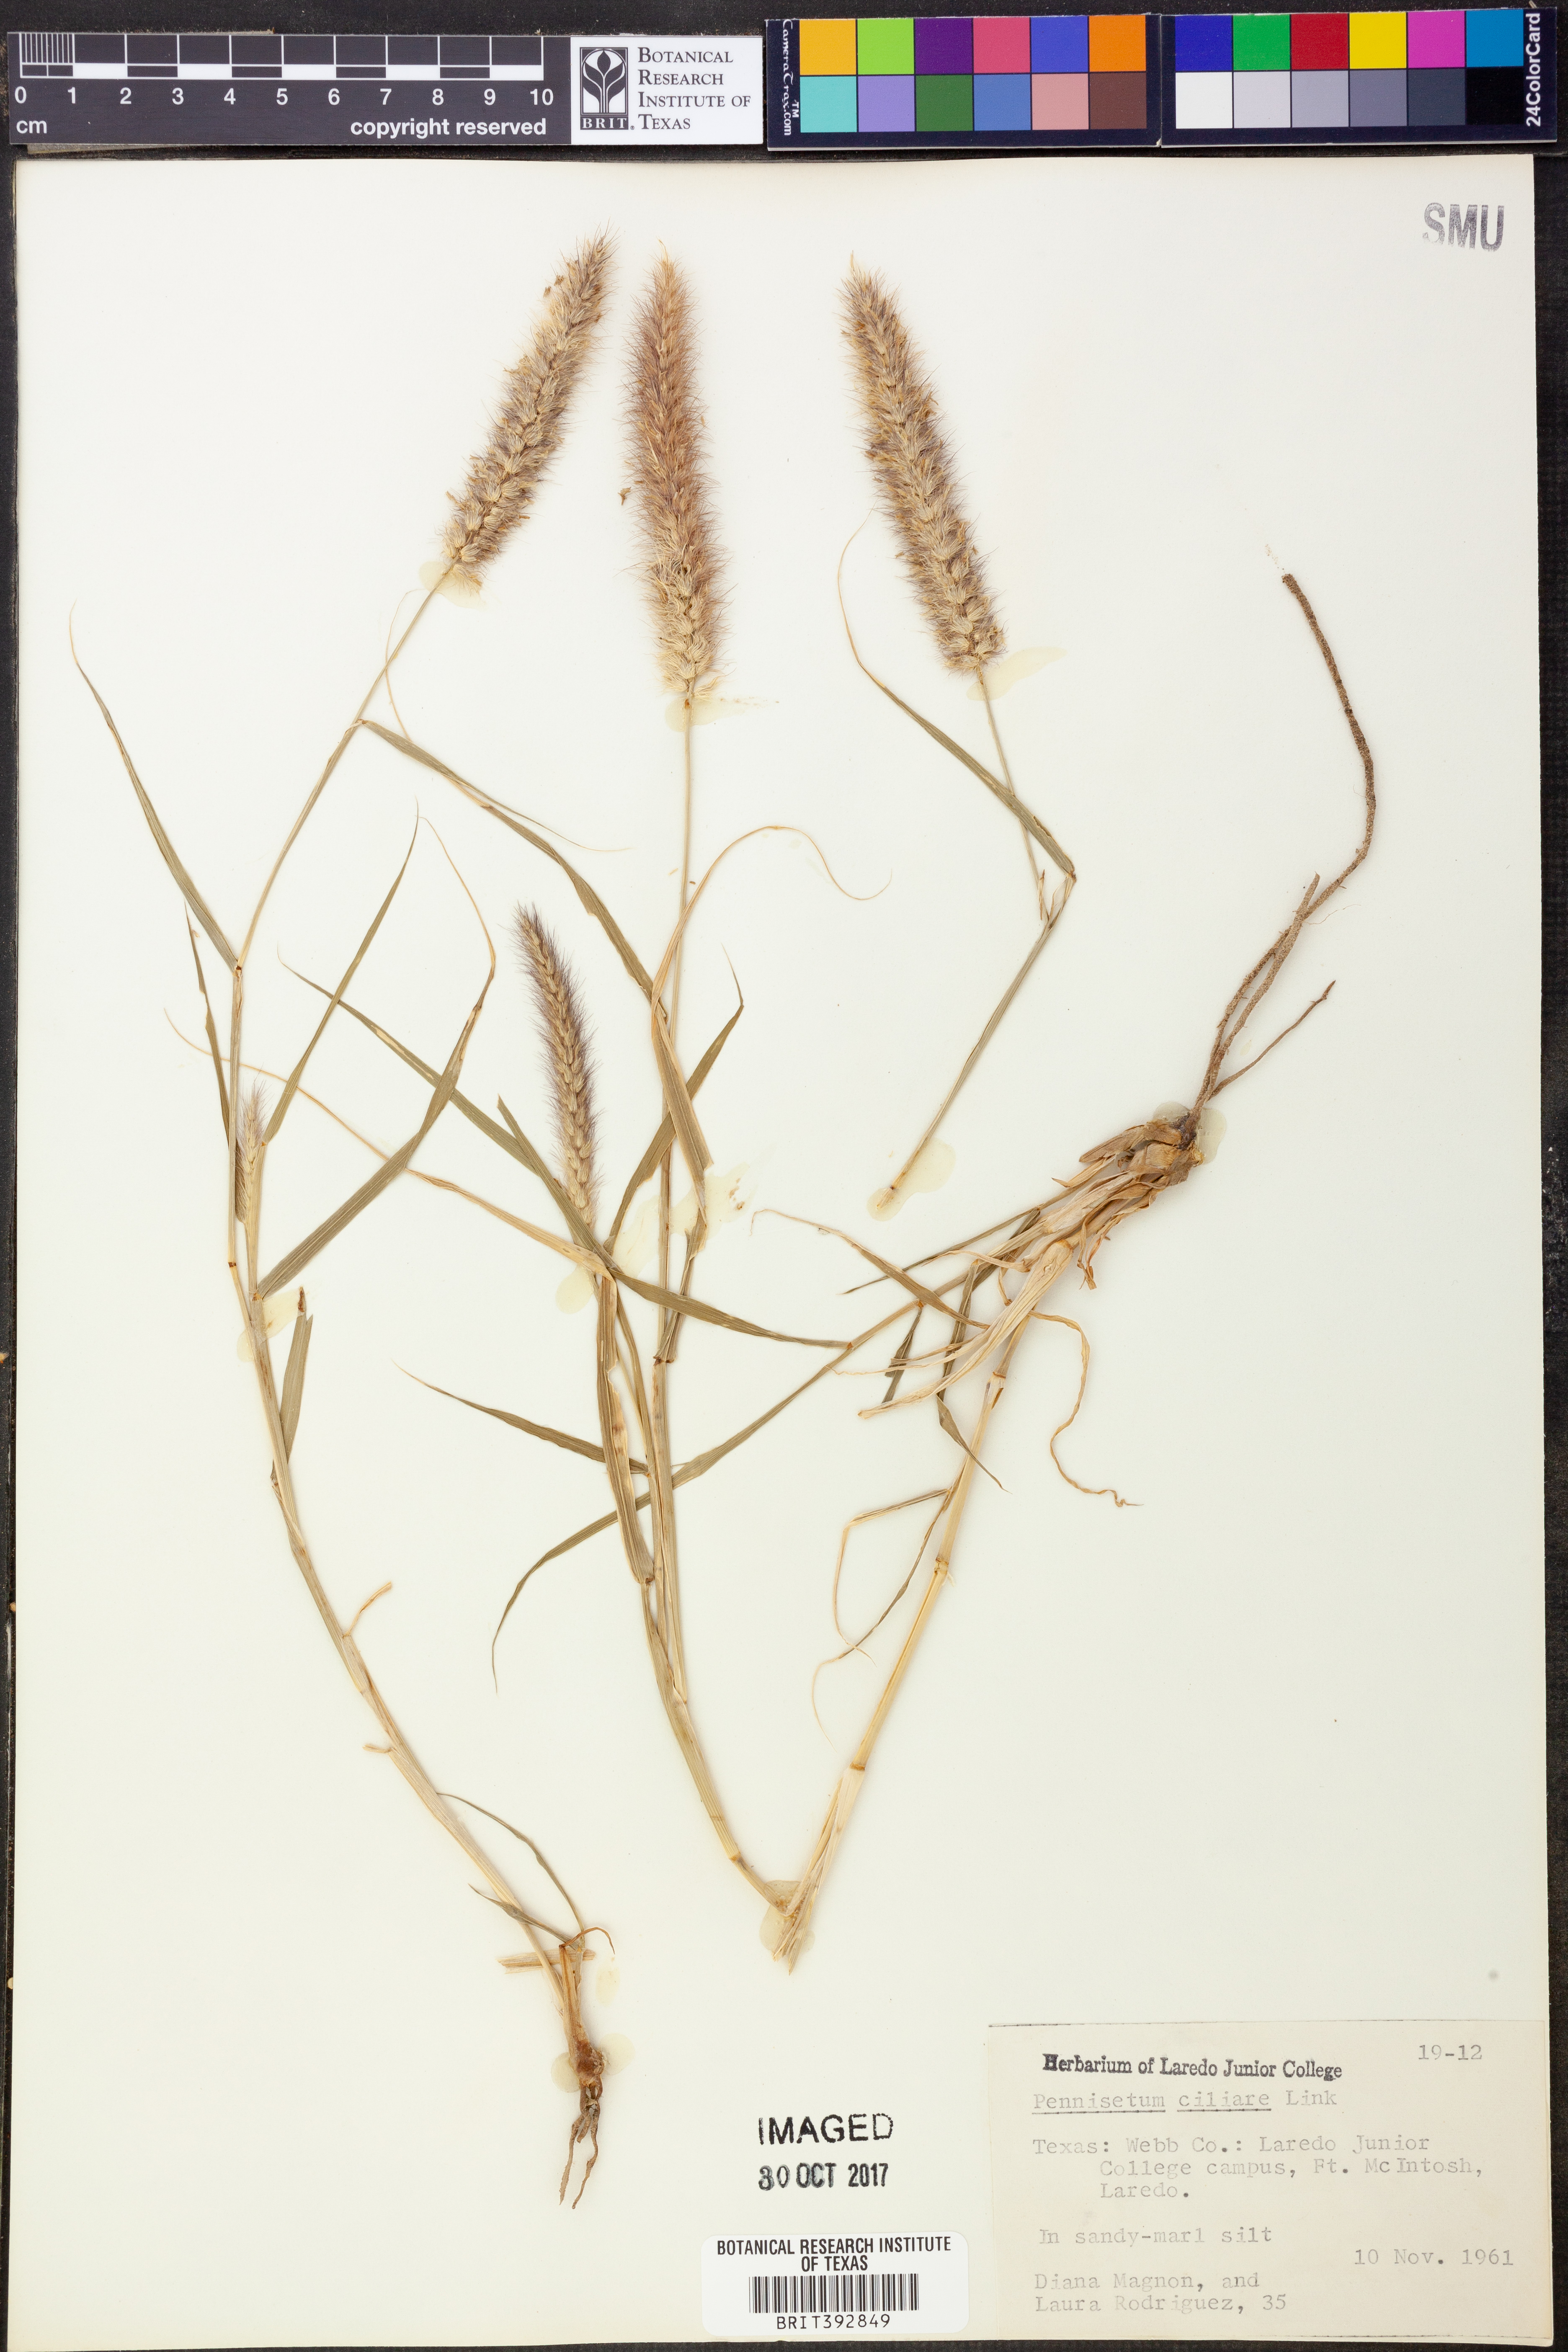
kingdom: Plantae
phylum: Tracheophyta
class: Liliopsida
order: Poales
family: Poaceae
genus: Cenchrus
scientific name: Cenchrus ciliaris
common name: Buffelgrass
